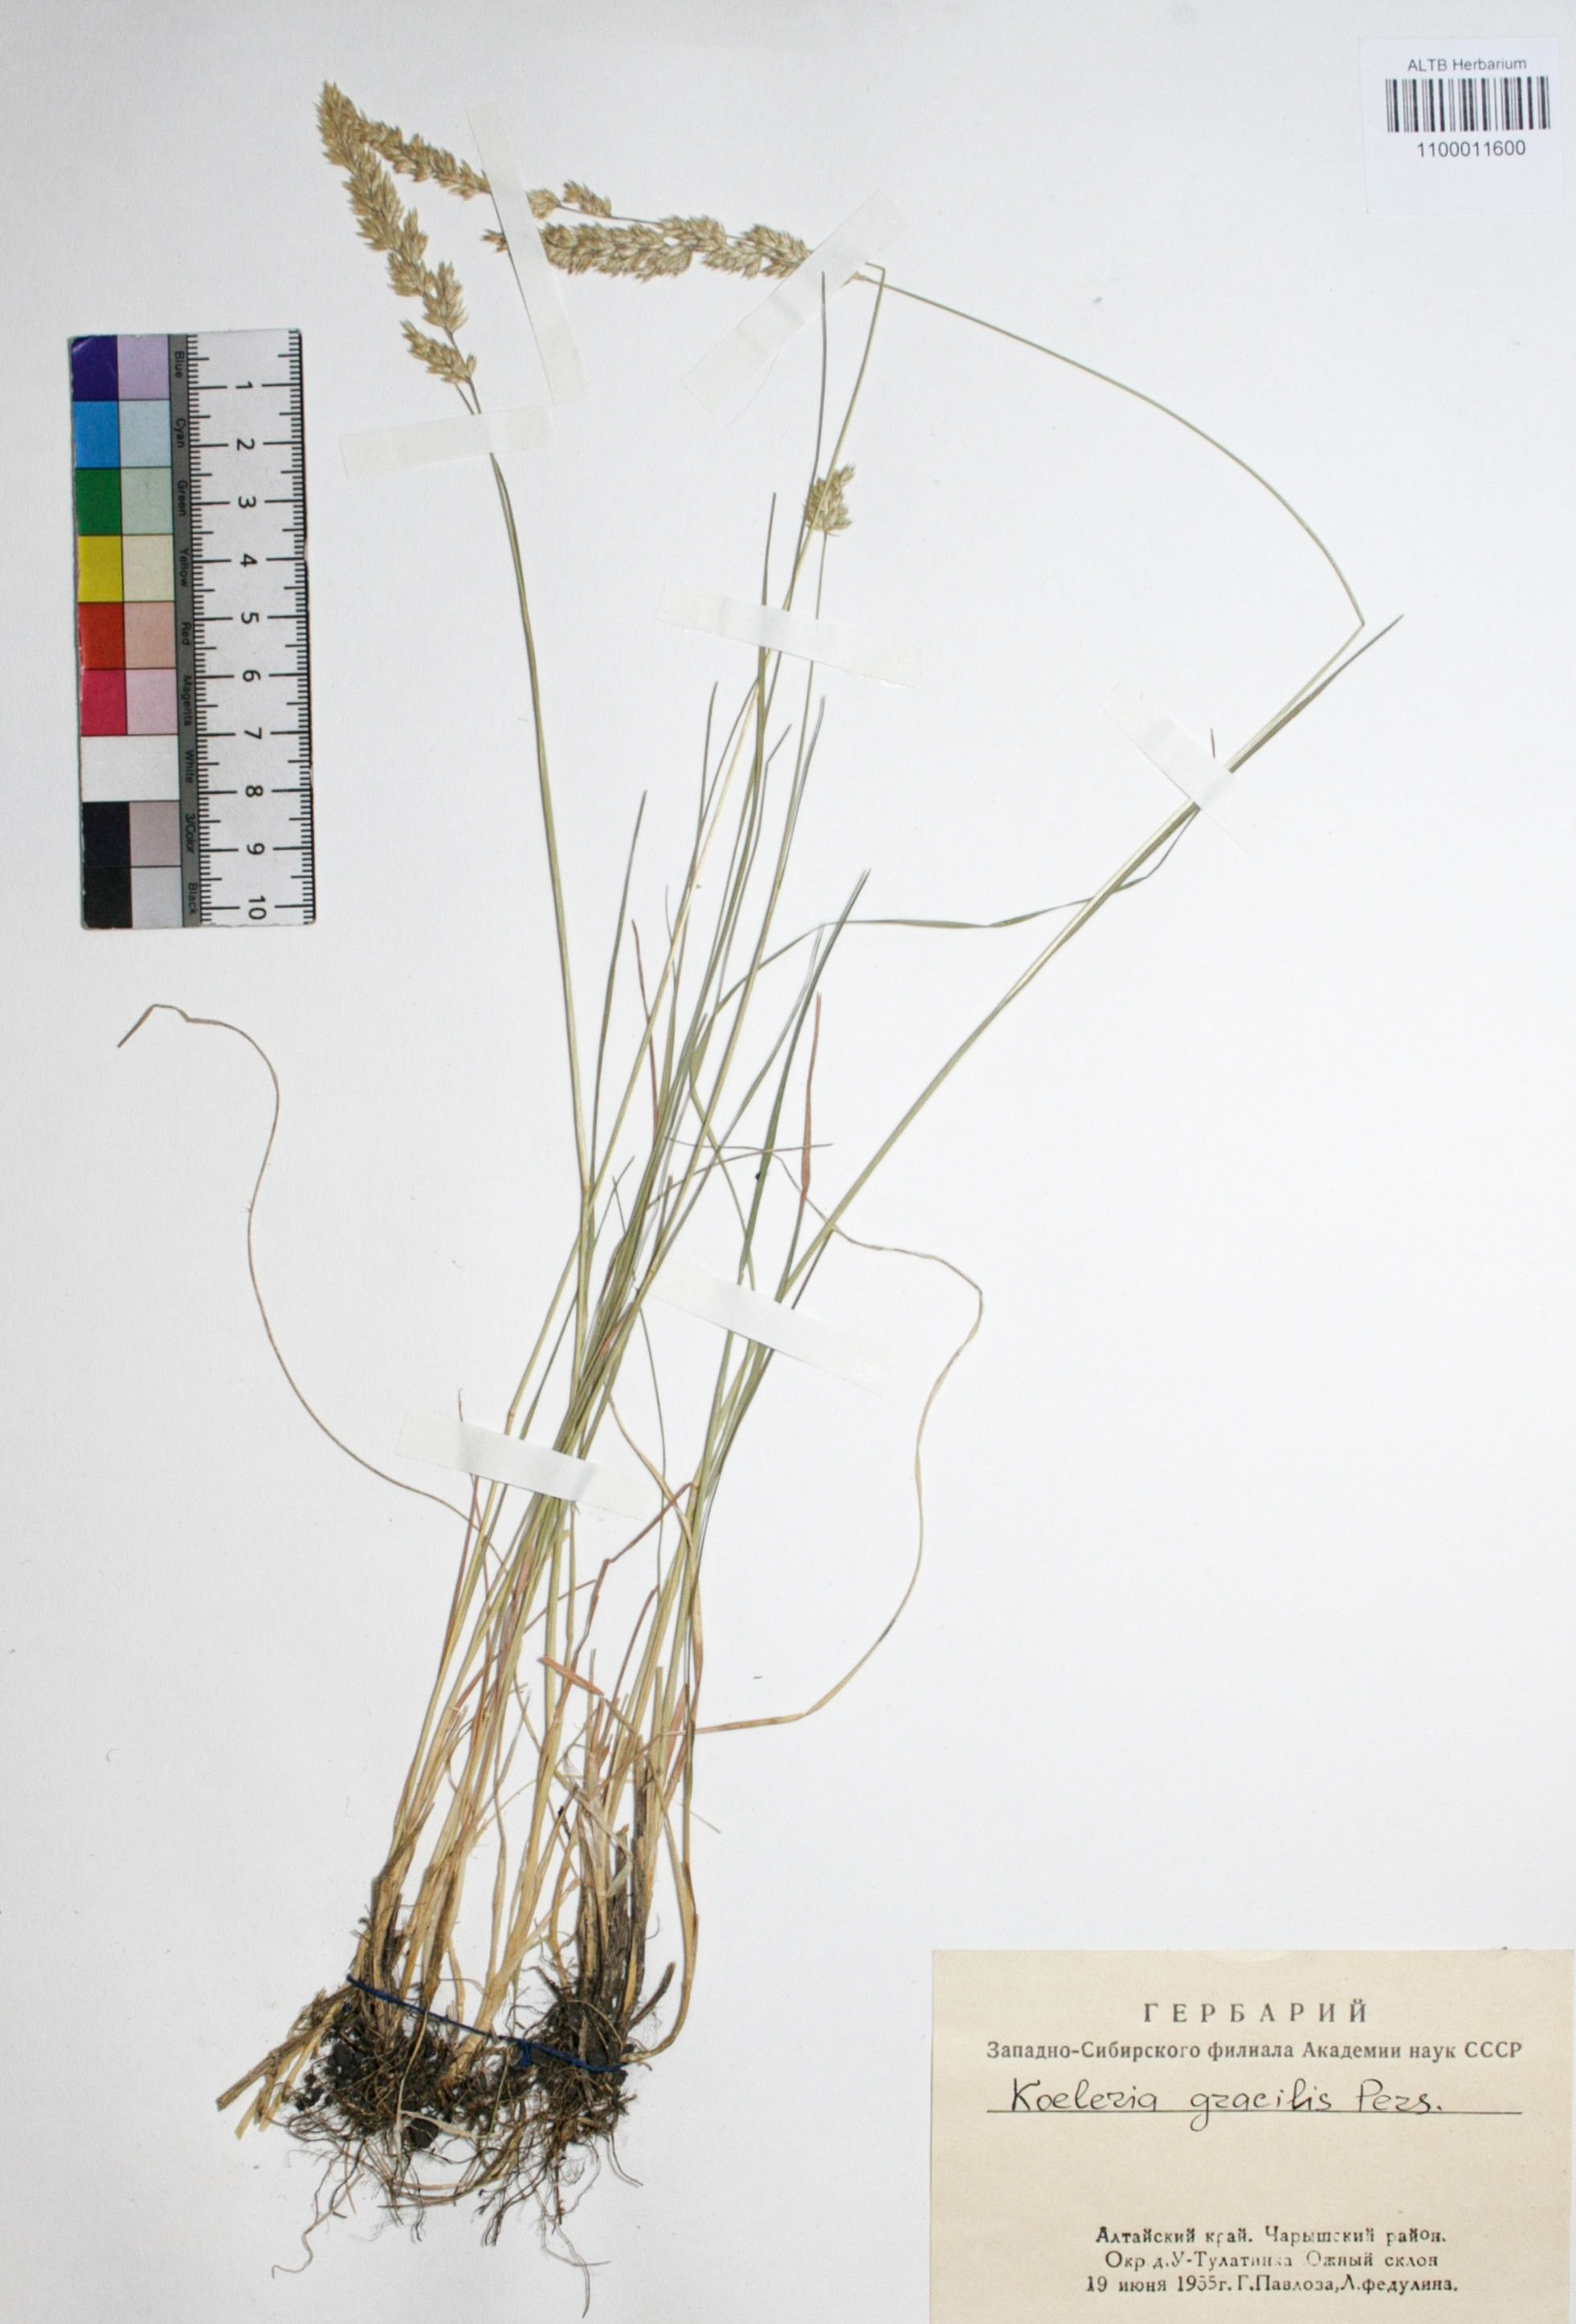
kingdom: Plantae
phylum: Tracheophyta
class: Liliopsida
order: Poales
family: Poaceae
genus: Koeleria
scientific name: Koeleria macrantha
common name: Crested hair-grass
